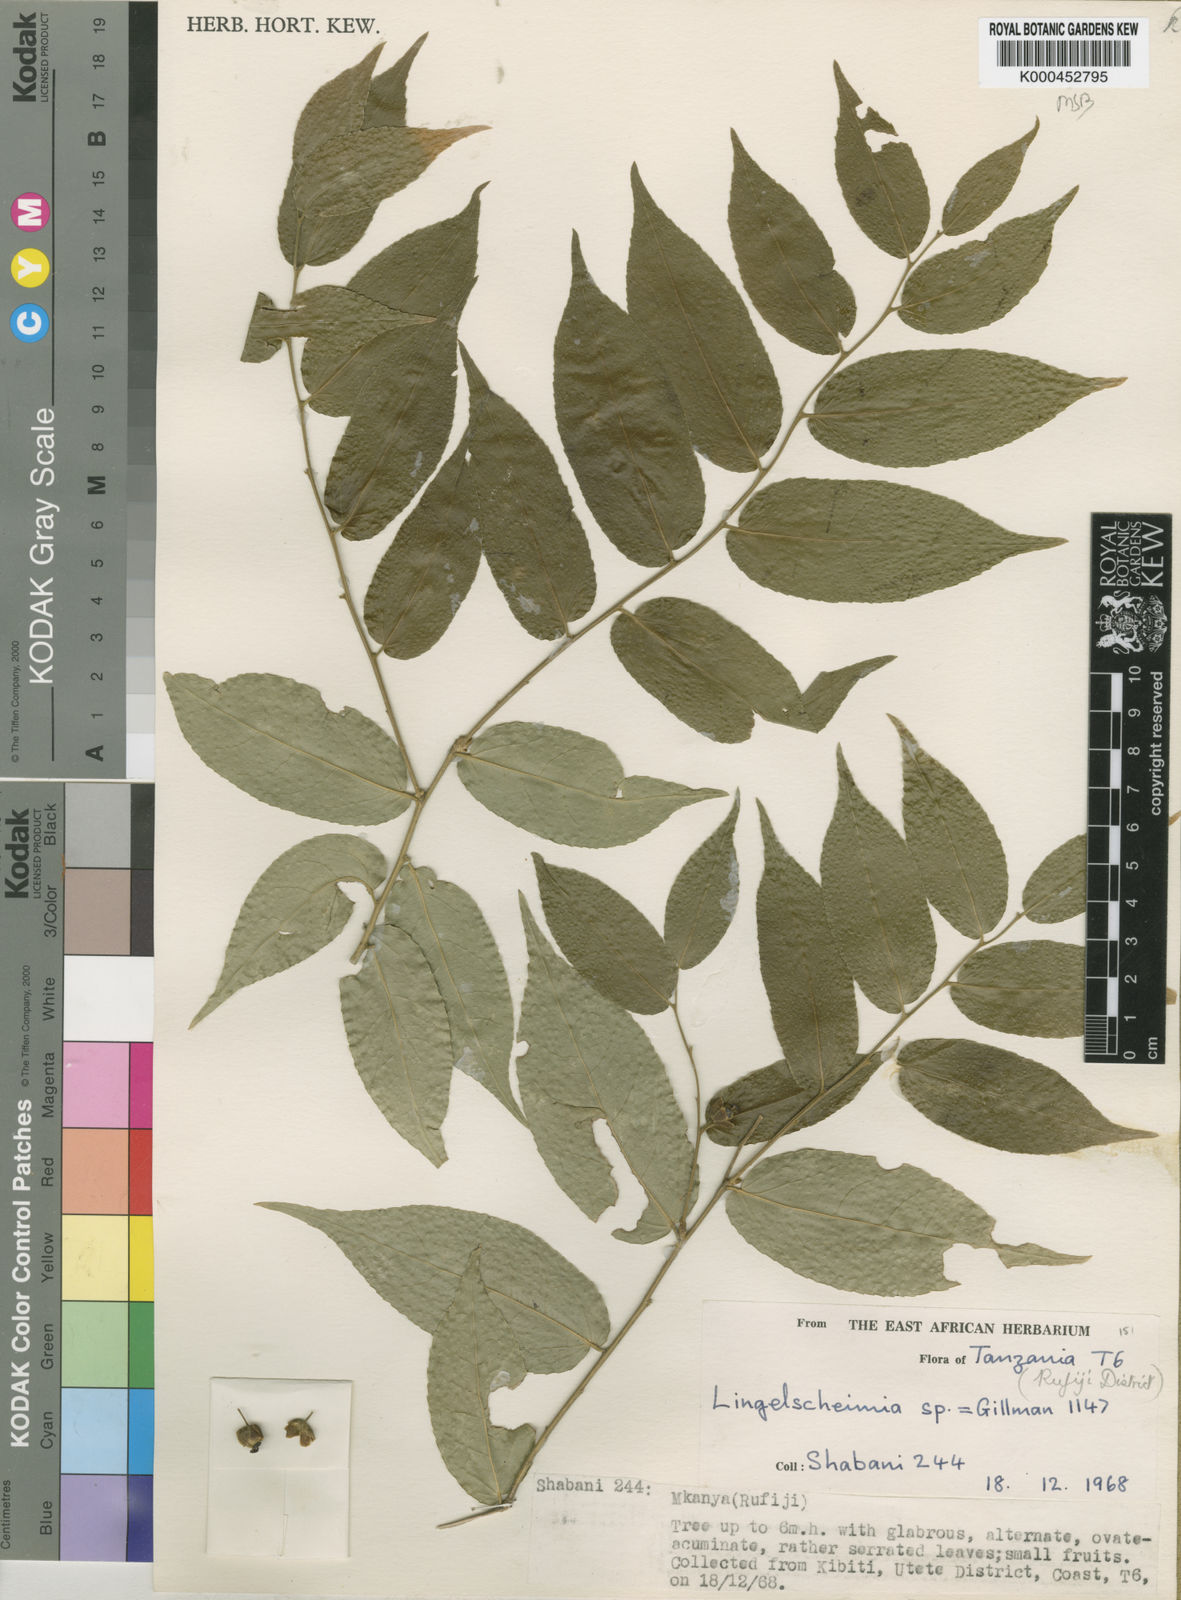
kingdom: Plantae
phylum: Tracheophyta
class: Magnoliopsida
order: Malpighiales
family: Putranjivaceae
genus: Drypetes
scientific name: Drypetes
